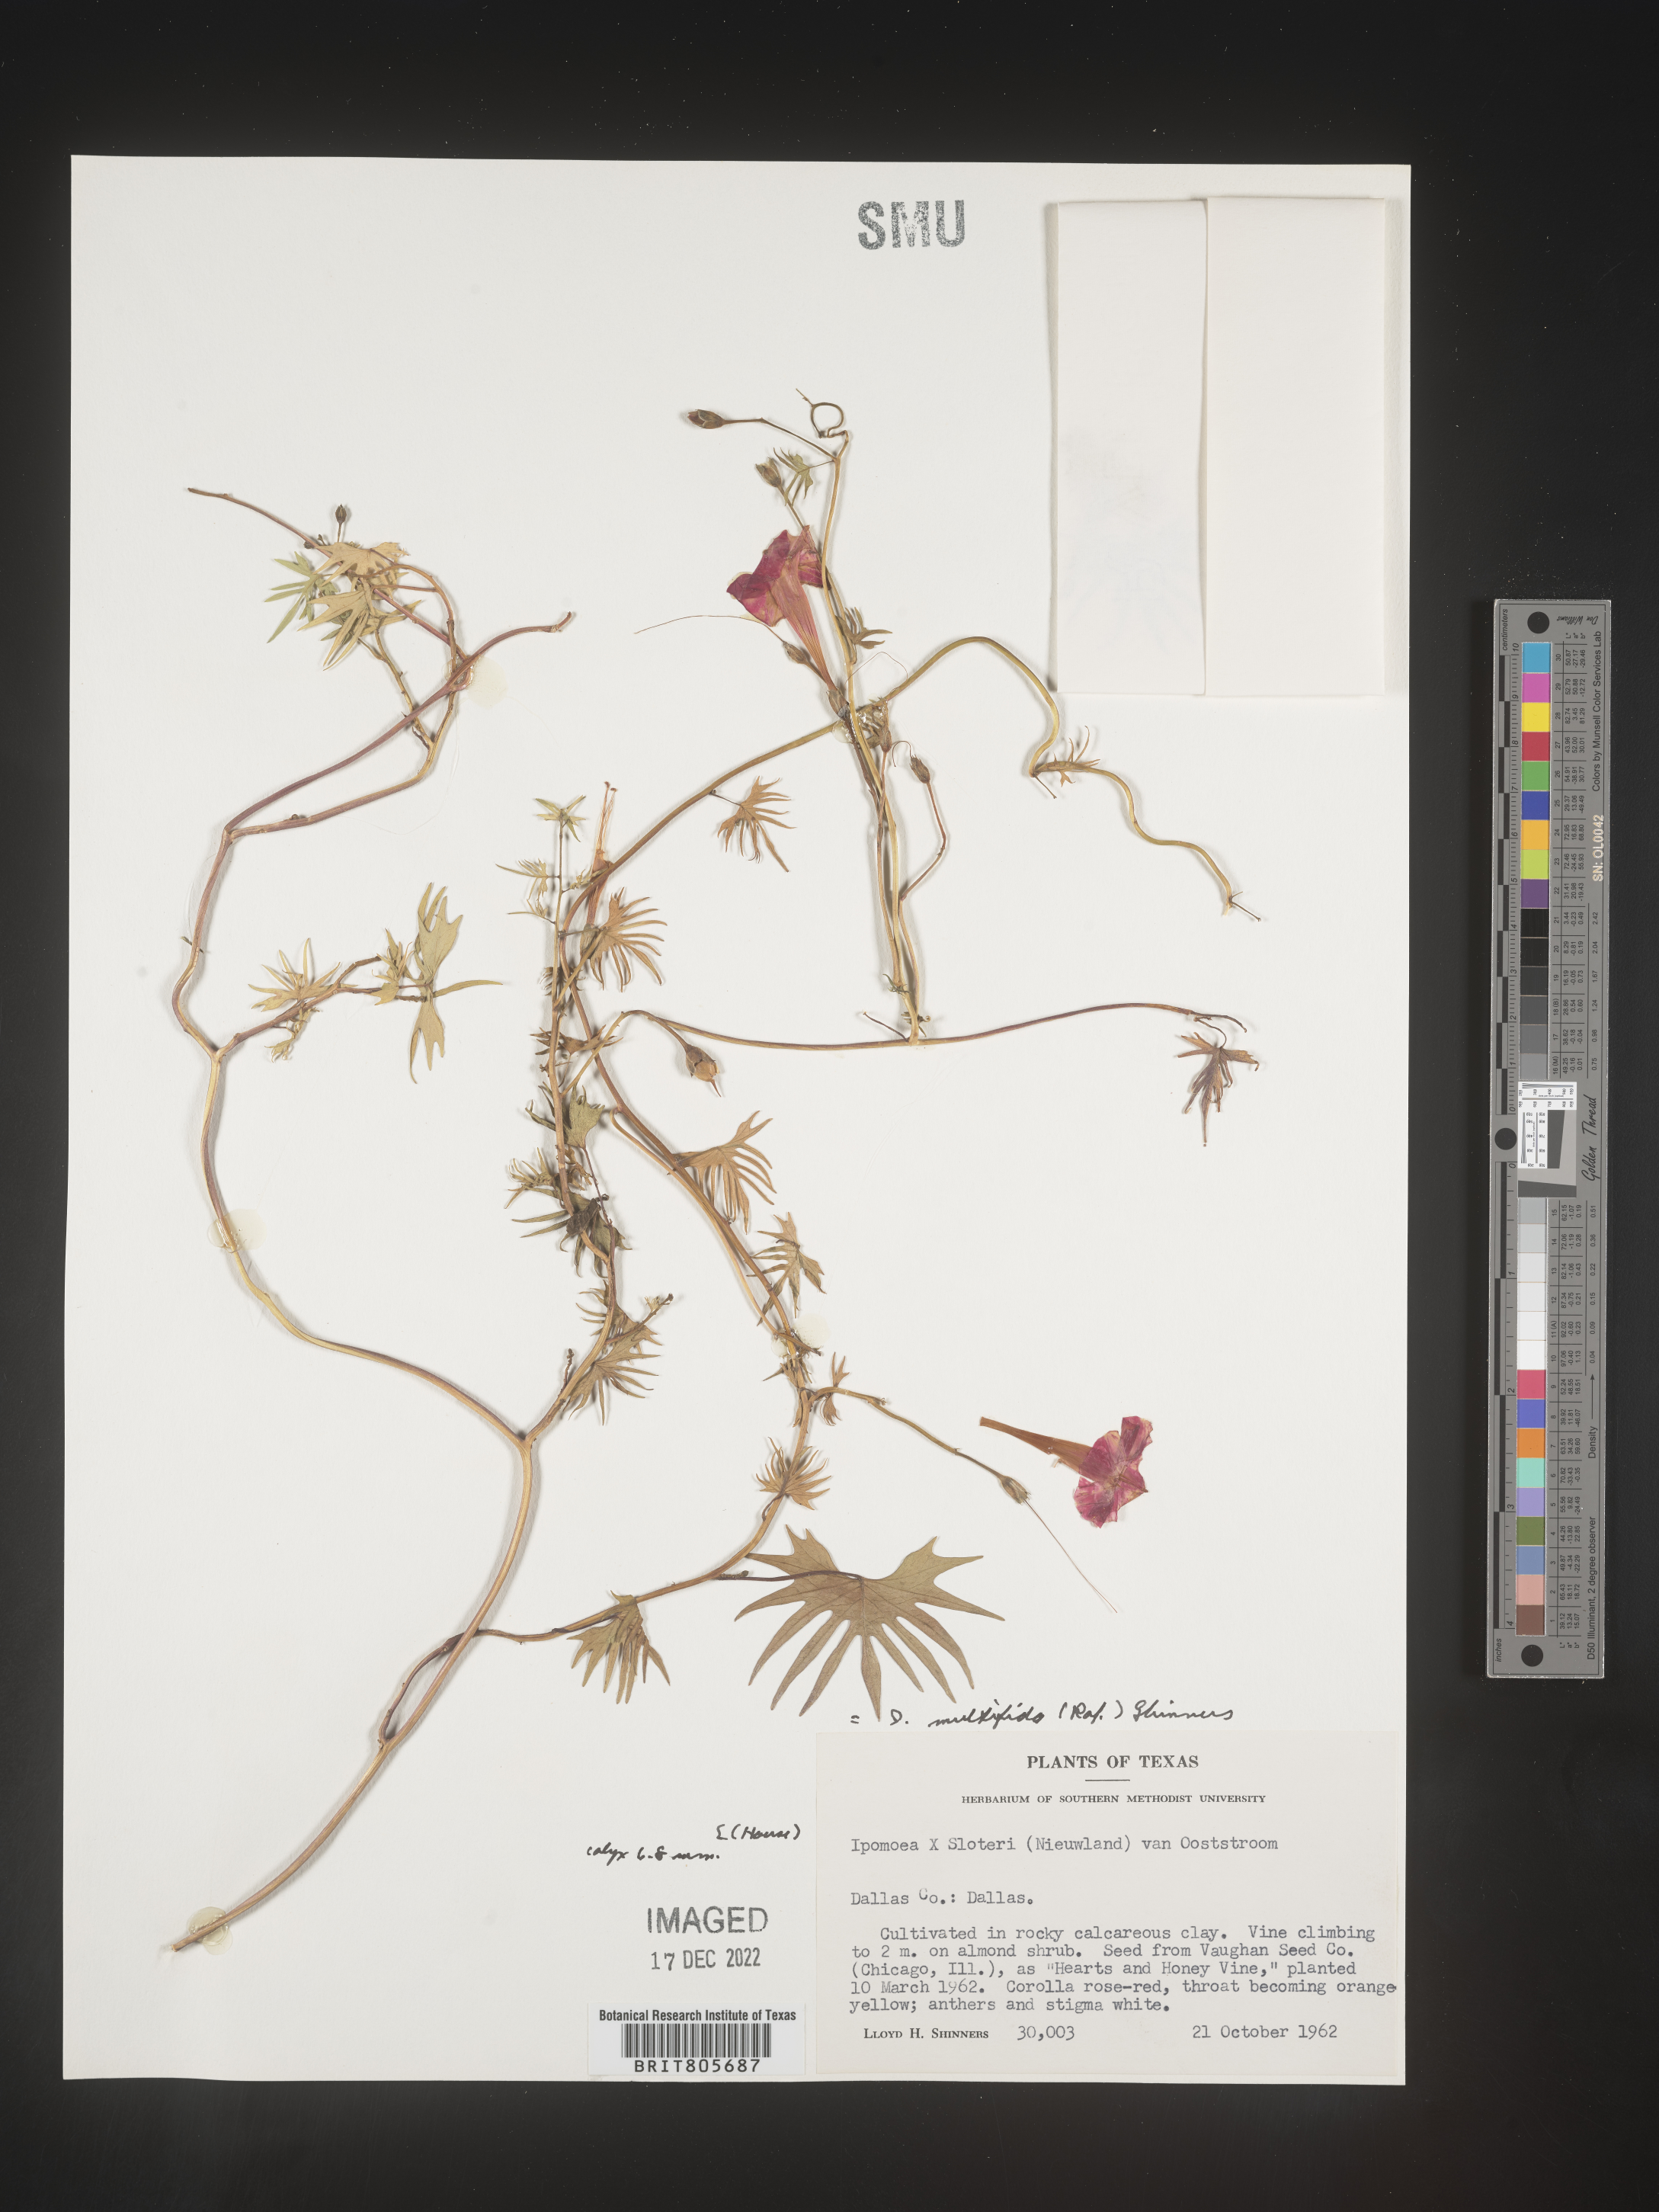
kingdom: Plantae
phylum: Tracheophyta
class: Magnoliopsida
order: Solanales
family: Convolvulaceae
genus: Ipomoea
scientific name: Ipomoea
